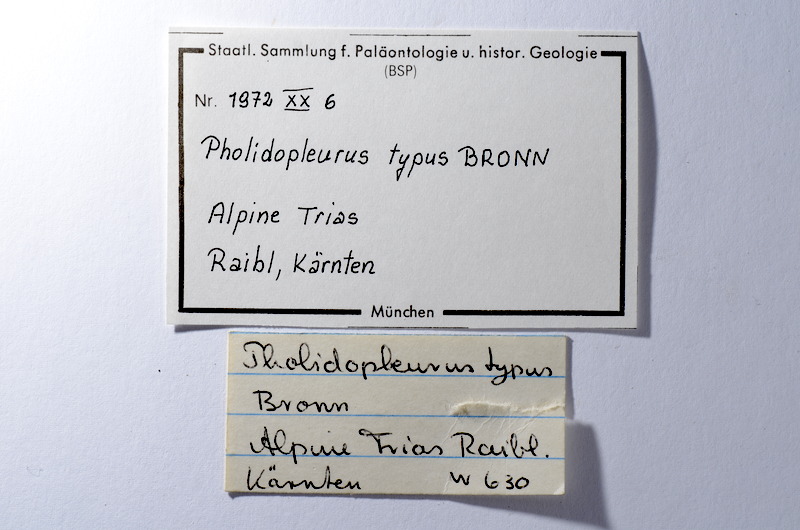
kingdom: Animalia
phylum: Chordata
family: Pholidopleuridae
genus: Pholidopleurus
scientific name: Pholidopleurus typus
